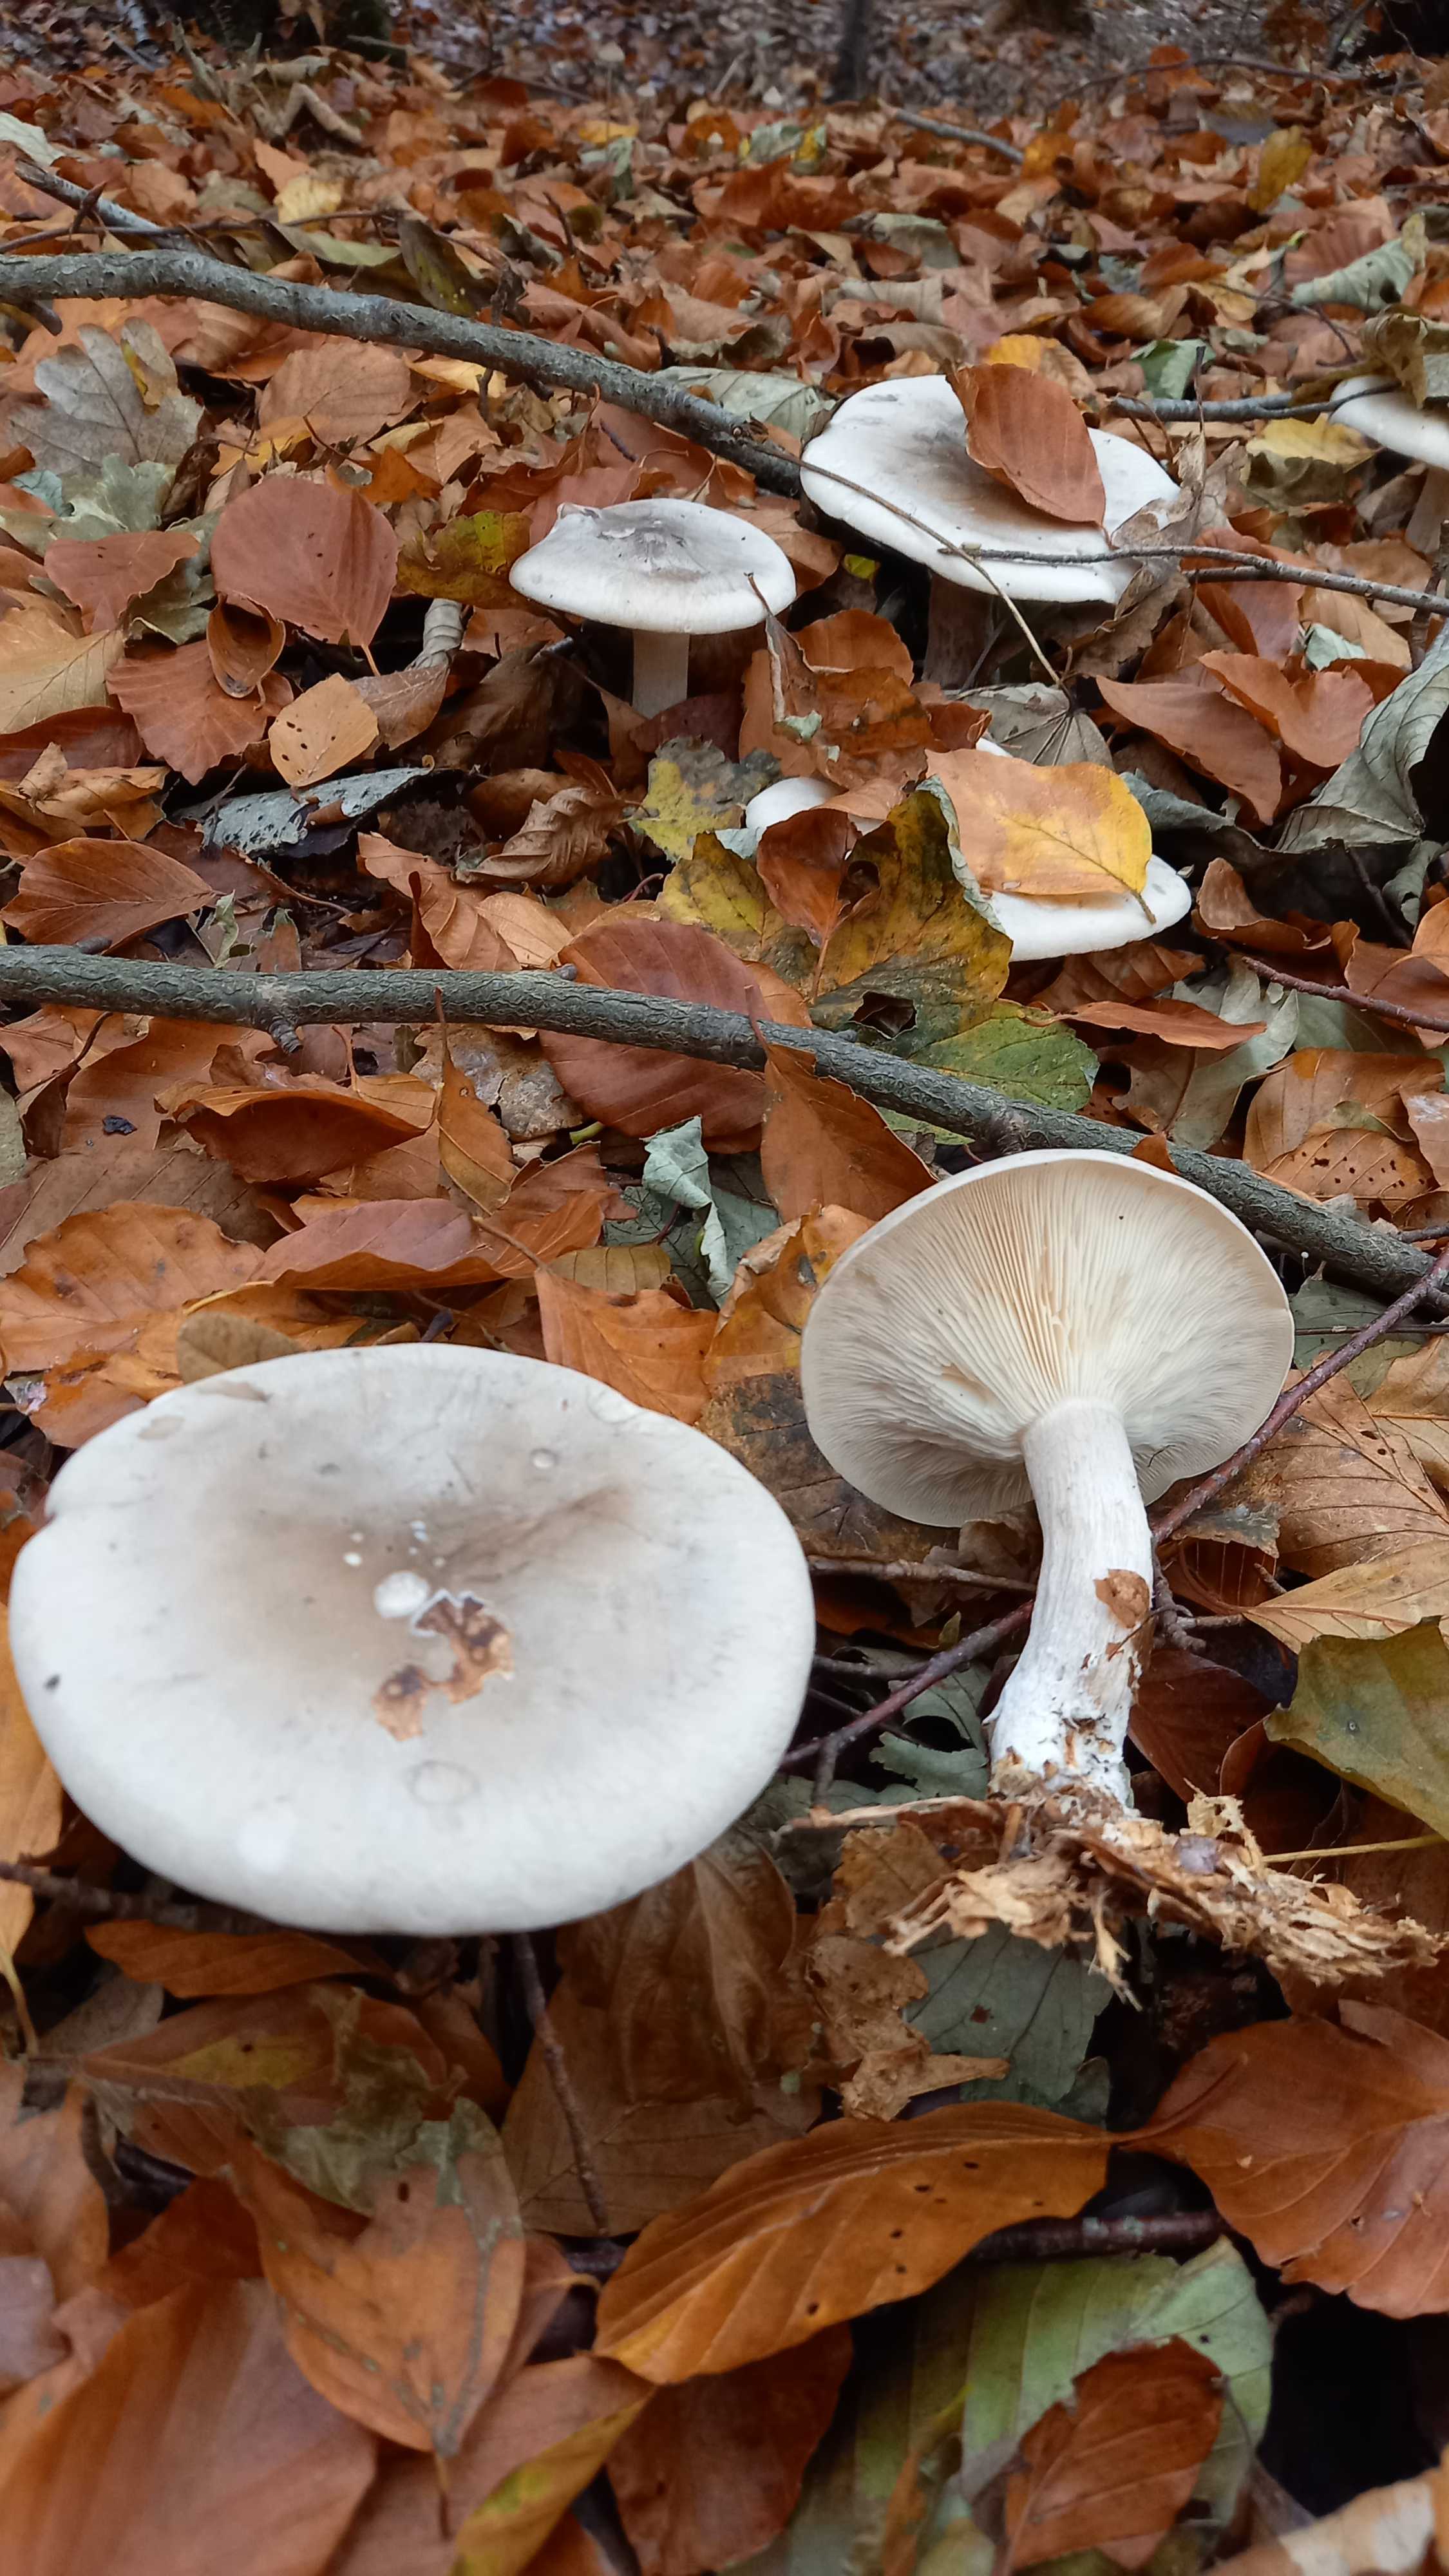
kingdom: Fungi
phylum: Basidiomycota
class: Agaricomycetes
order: Agaricales
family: Tricholomataceae
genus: Clitocybe
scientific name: Clitocybe nebularis
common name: tåge-tragthat
